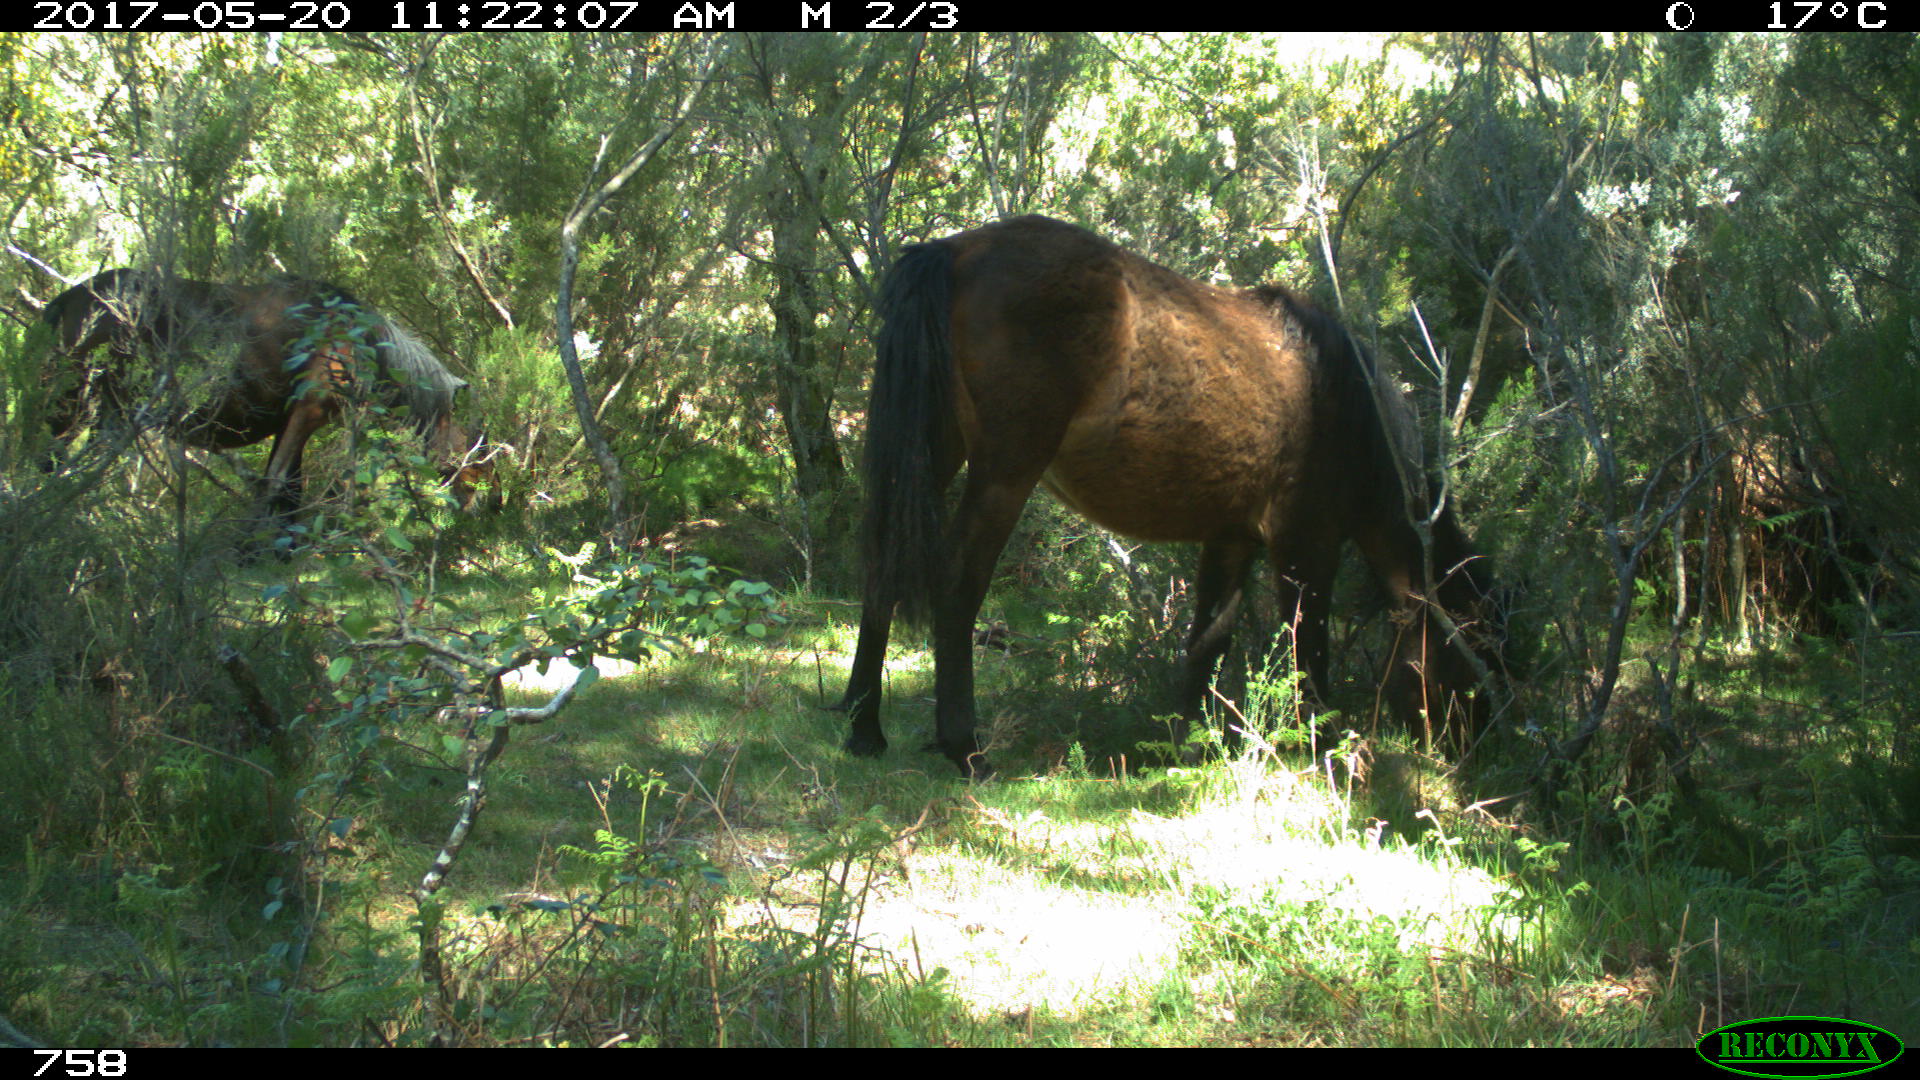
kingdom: Animalia
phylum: Chordata
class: Mammalia
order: Perissodactyla
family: Equidae
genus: Equus
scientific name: Equus caballus
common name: Horse
